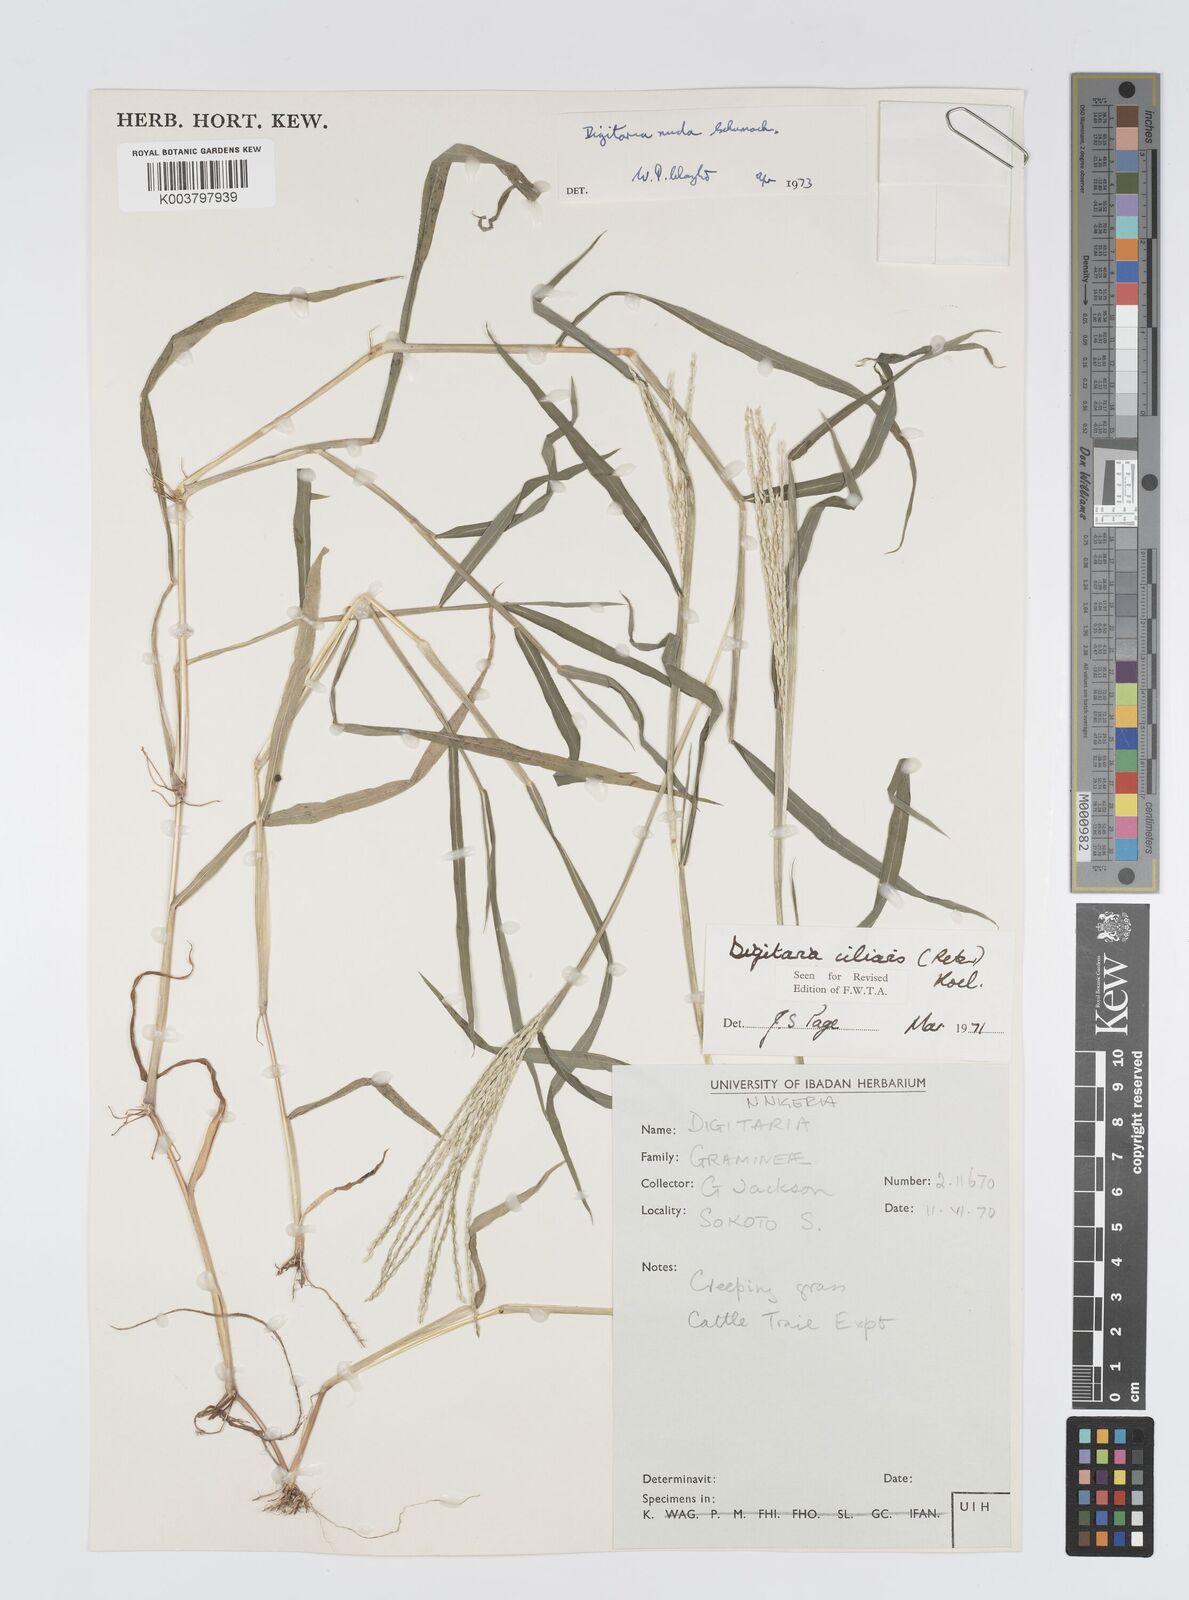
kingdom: Plantae
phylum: Tracheophyta
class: Liliopsida
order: Poales
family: Poaceae
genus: Digitaria
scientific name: Digitaria nuda
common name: Naked crabgrass
